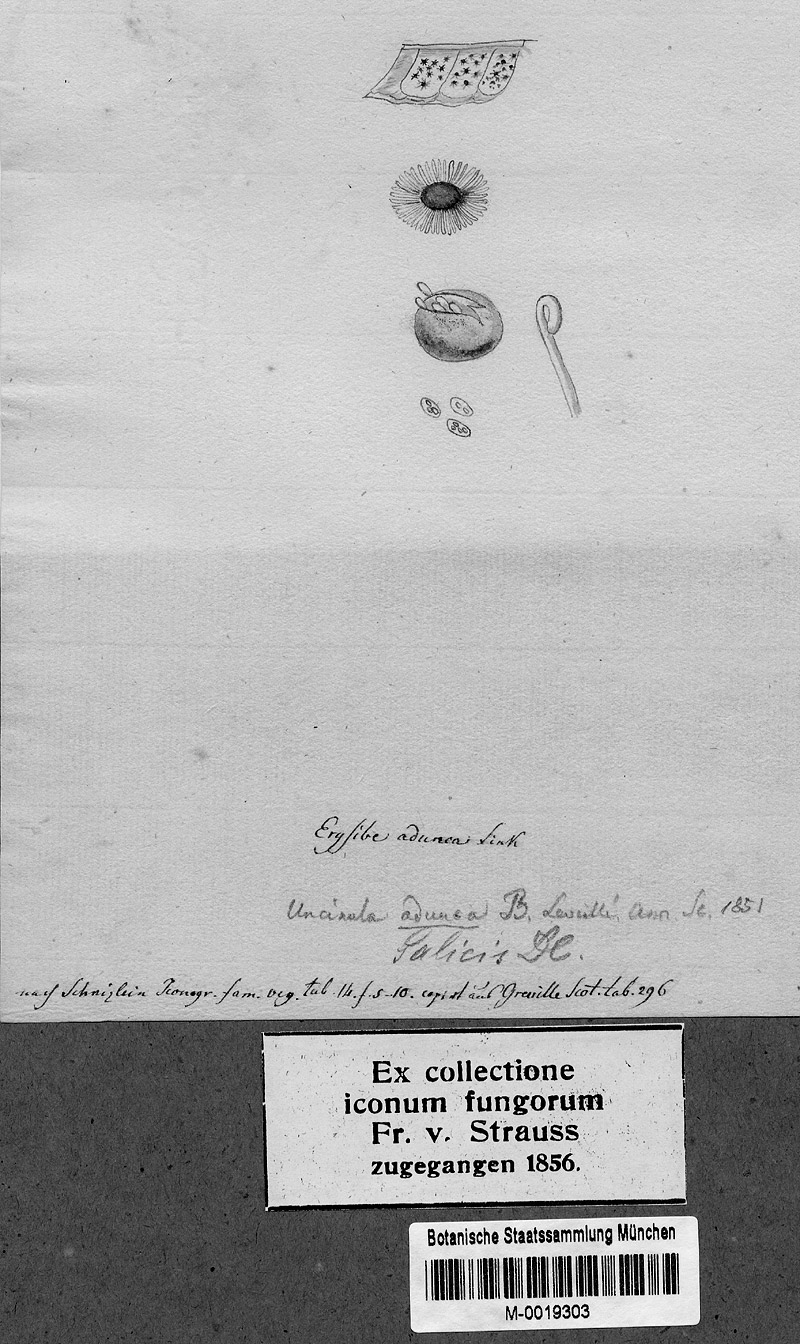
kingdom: Fungi
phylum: Ascomycota
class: Leotiomycetes
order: Helotiales
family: Erysiphaceae
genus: Erysiphe
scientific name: Erysiphe adunca
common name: Willow mildew
